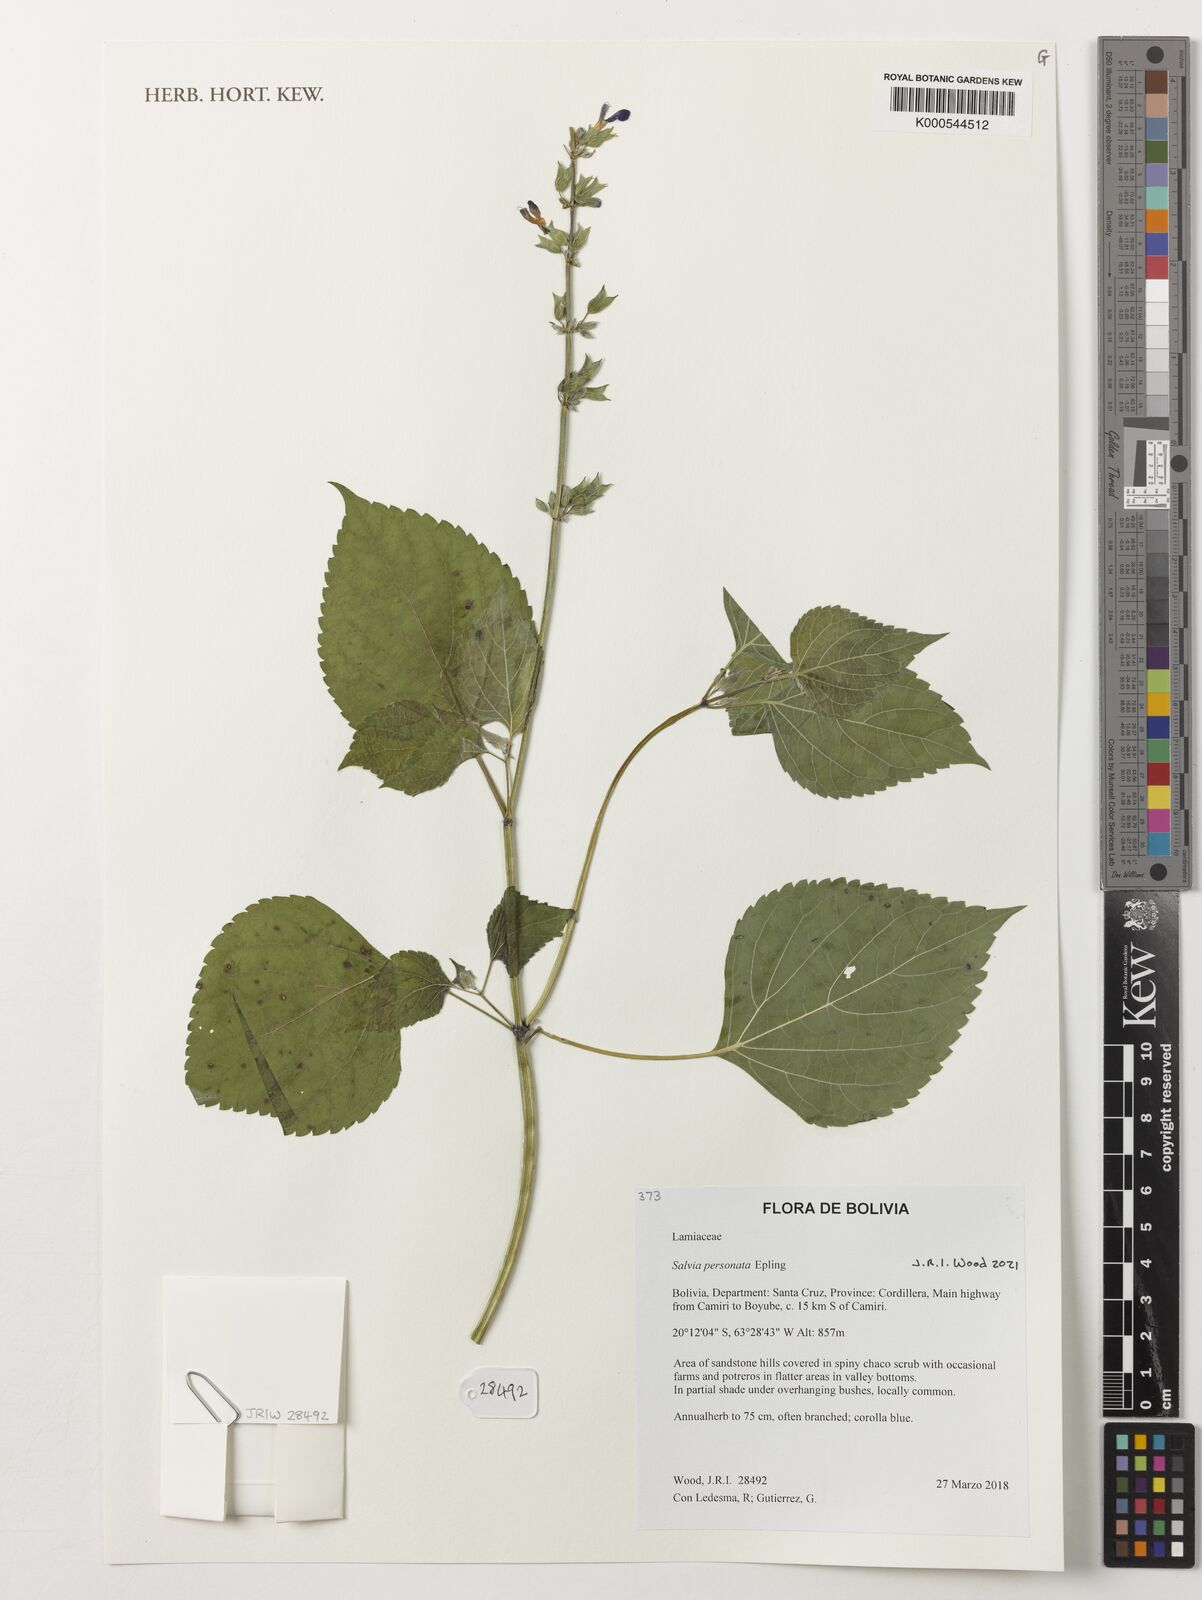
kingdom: Plantae
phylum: Tracheophyta
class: Magnoliopsida
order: Lamiales
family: Lamiaceae
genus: Salvia
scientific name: Salvia personata
